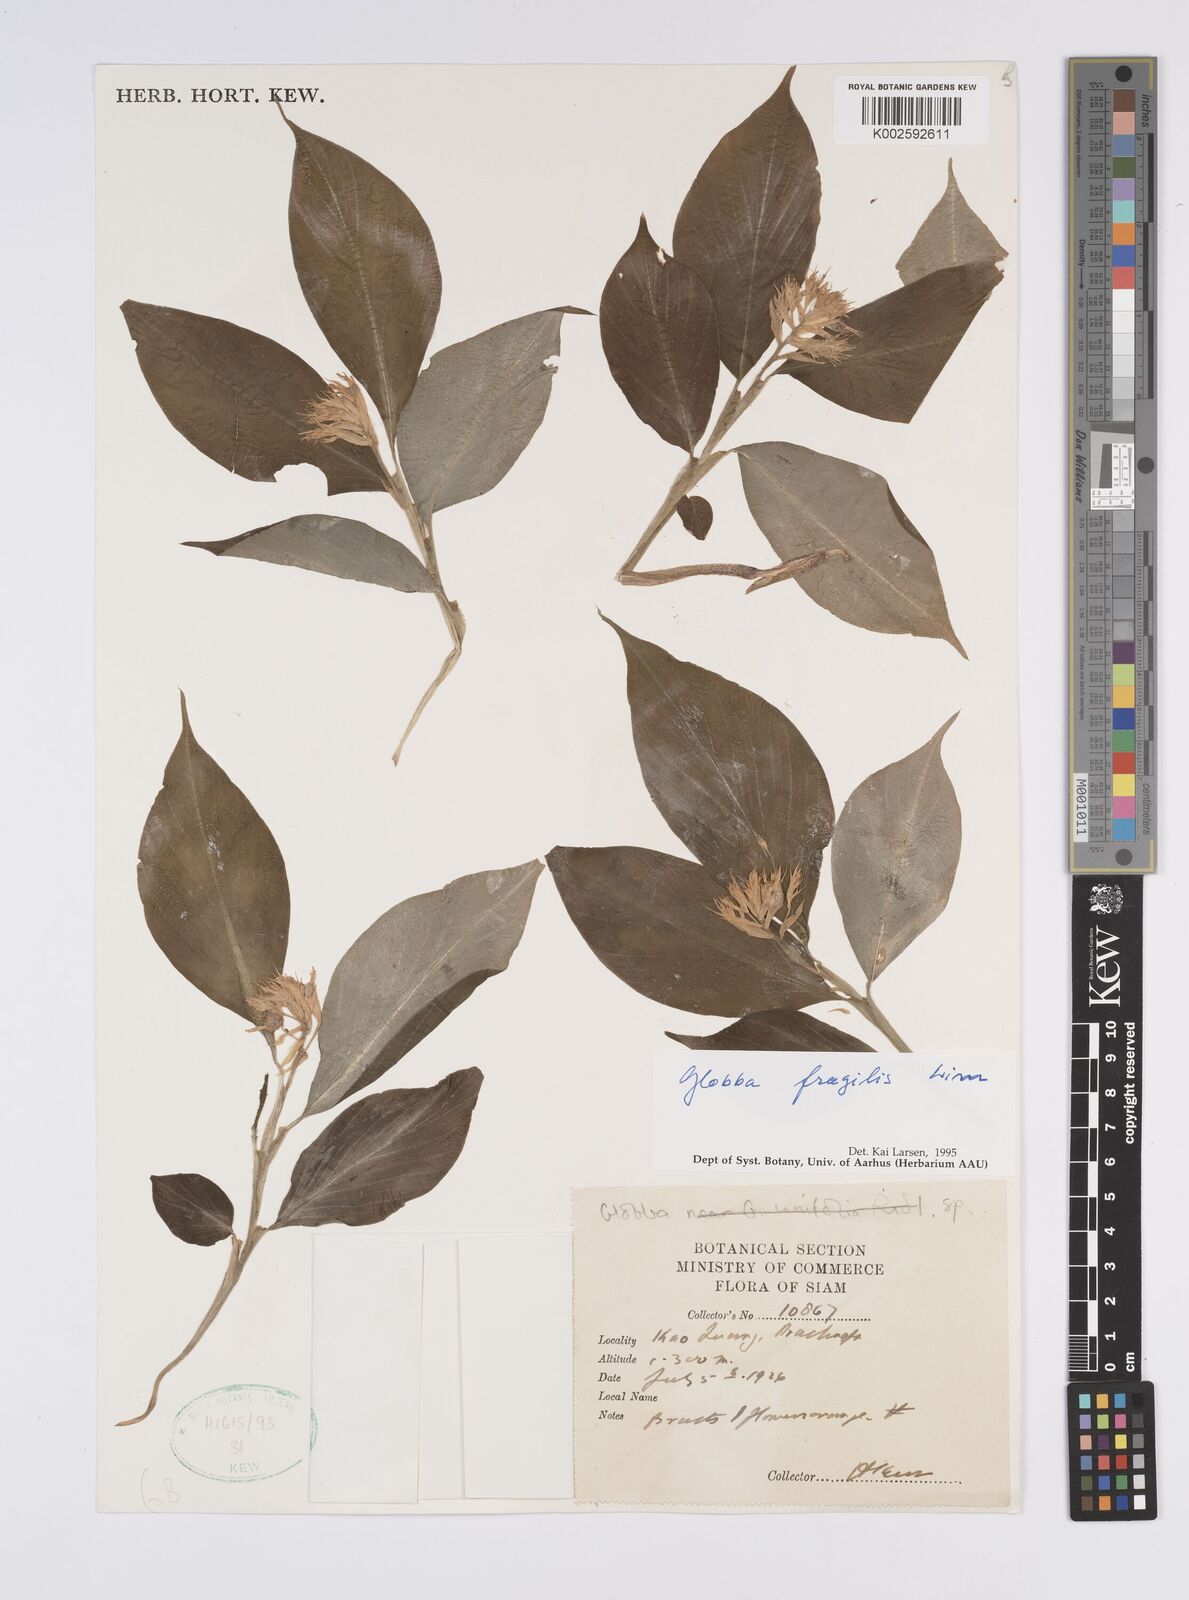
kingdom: Plantae
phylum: Tracheophyta
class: Liliopsida
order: Zingiberales
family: Zingiberaceae
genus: Globba
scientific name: Globba fragilis
